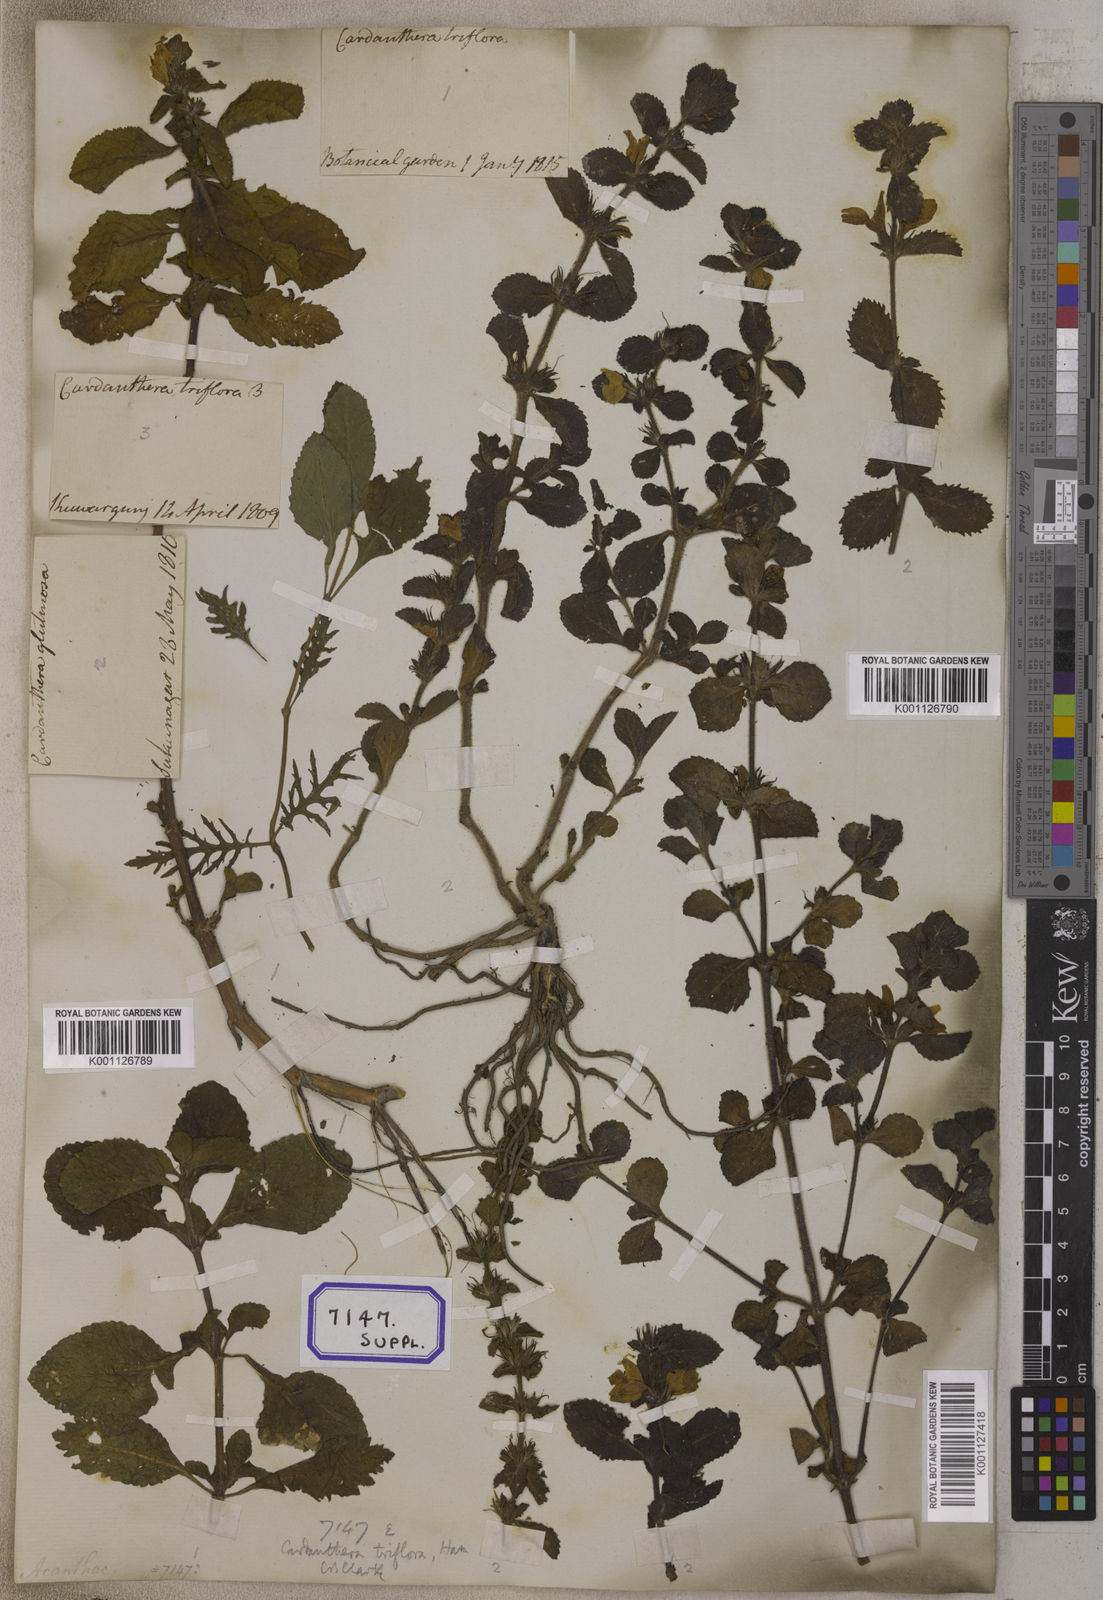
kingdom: Plantae
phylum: Tracheophyta
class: Magnoliopsida
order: Lamiales
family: Plantaginaceae
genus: Adenosma
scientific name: Adenosma
